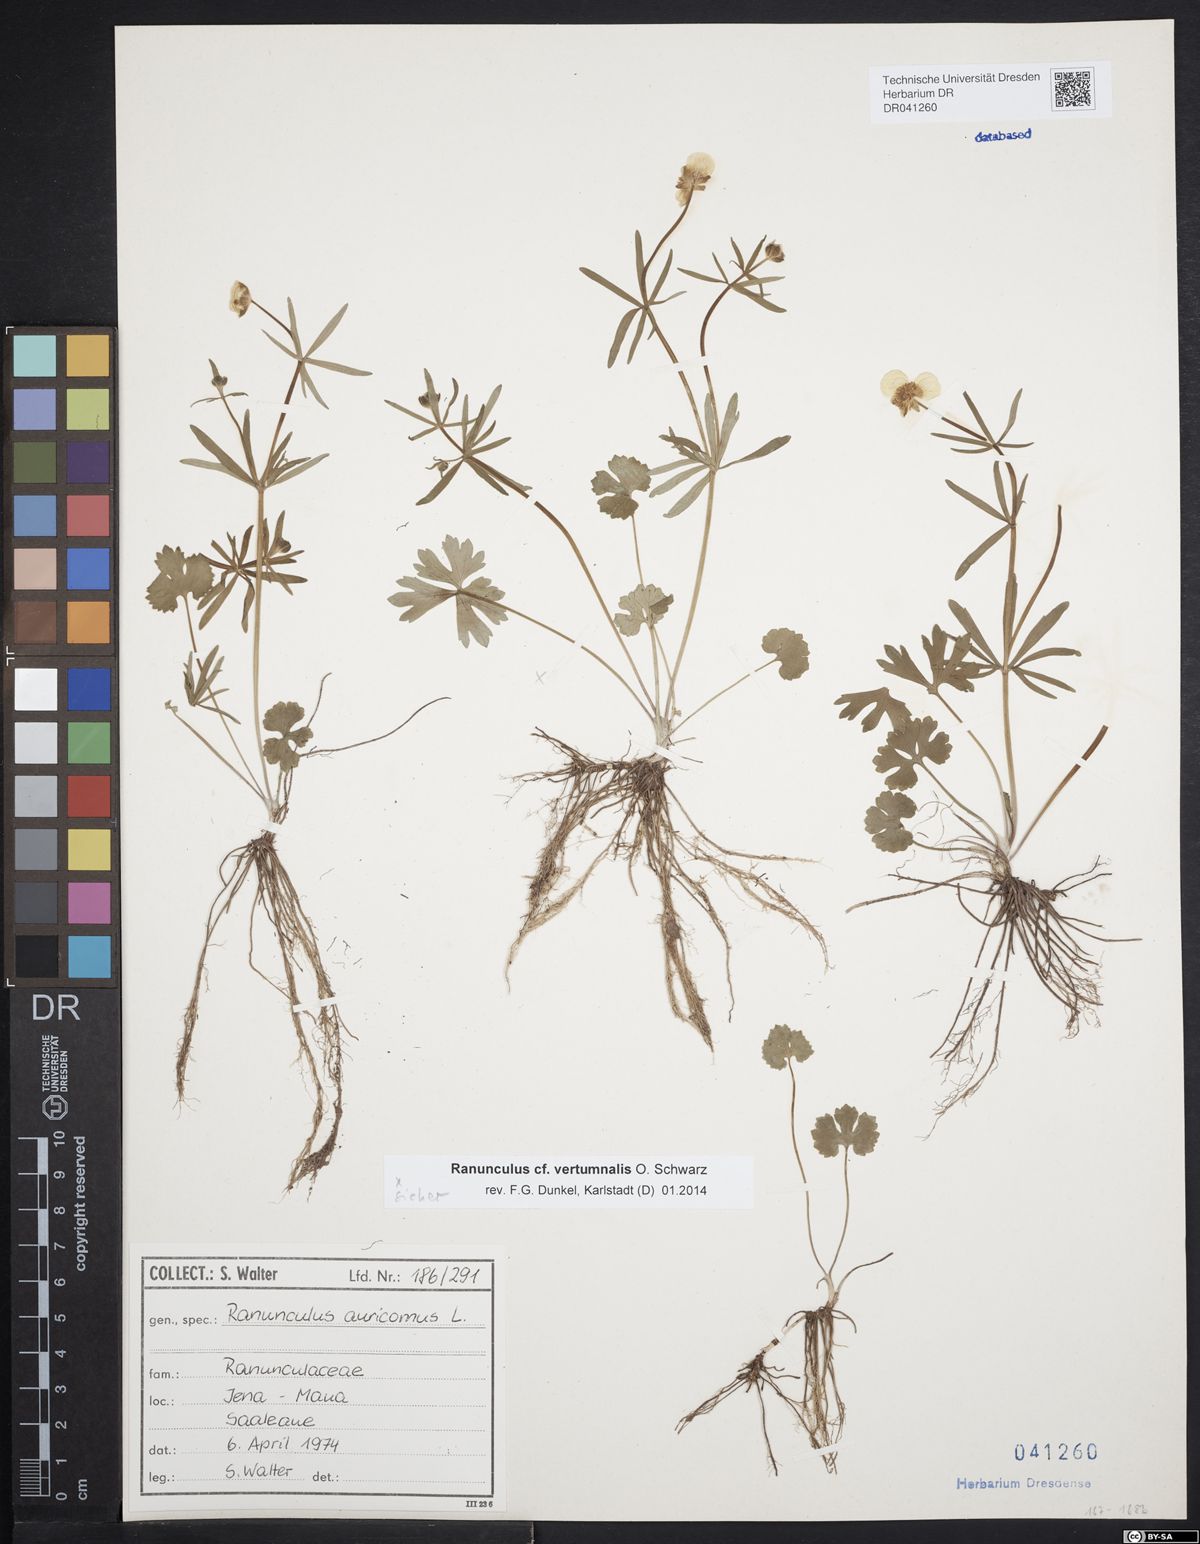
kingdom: Plantae
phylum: Tracheophyta
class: Magnoliopsida
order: Ranunculales
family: Ranunculaceae
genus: Ranunculus
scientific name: Ranunculus vertumnalis
